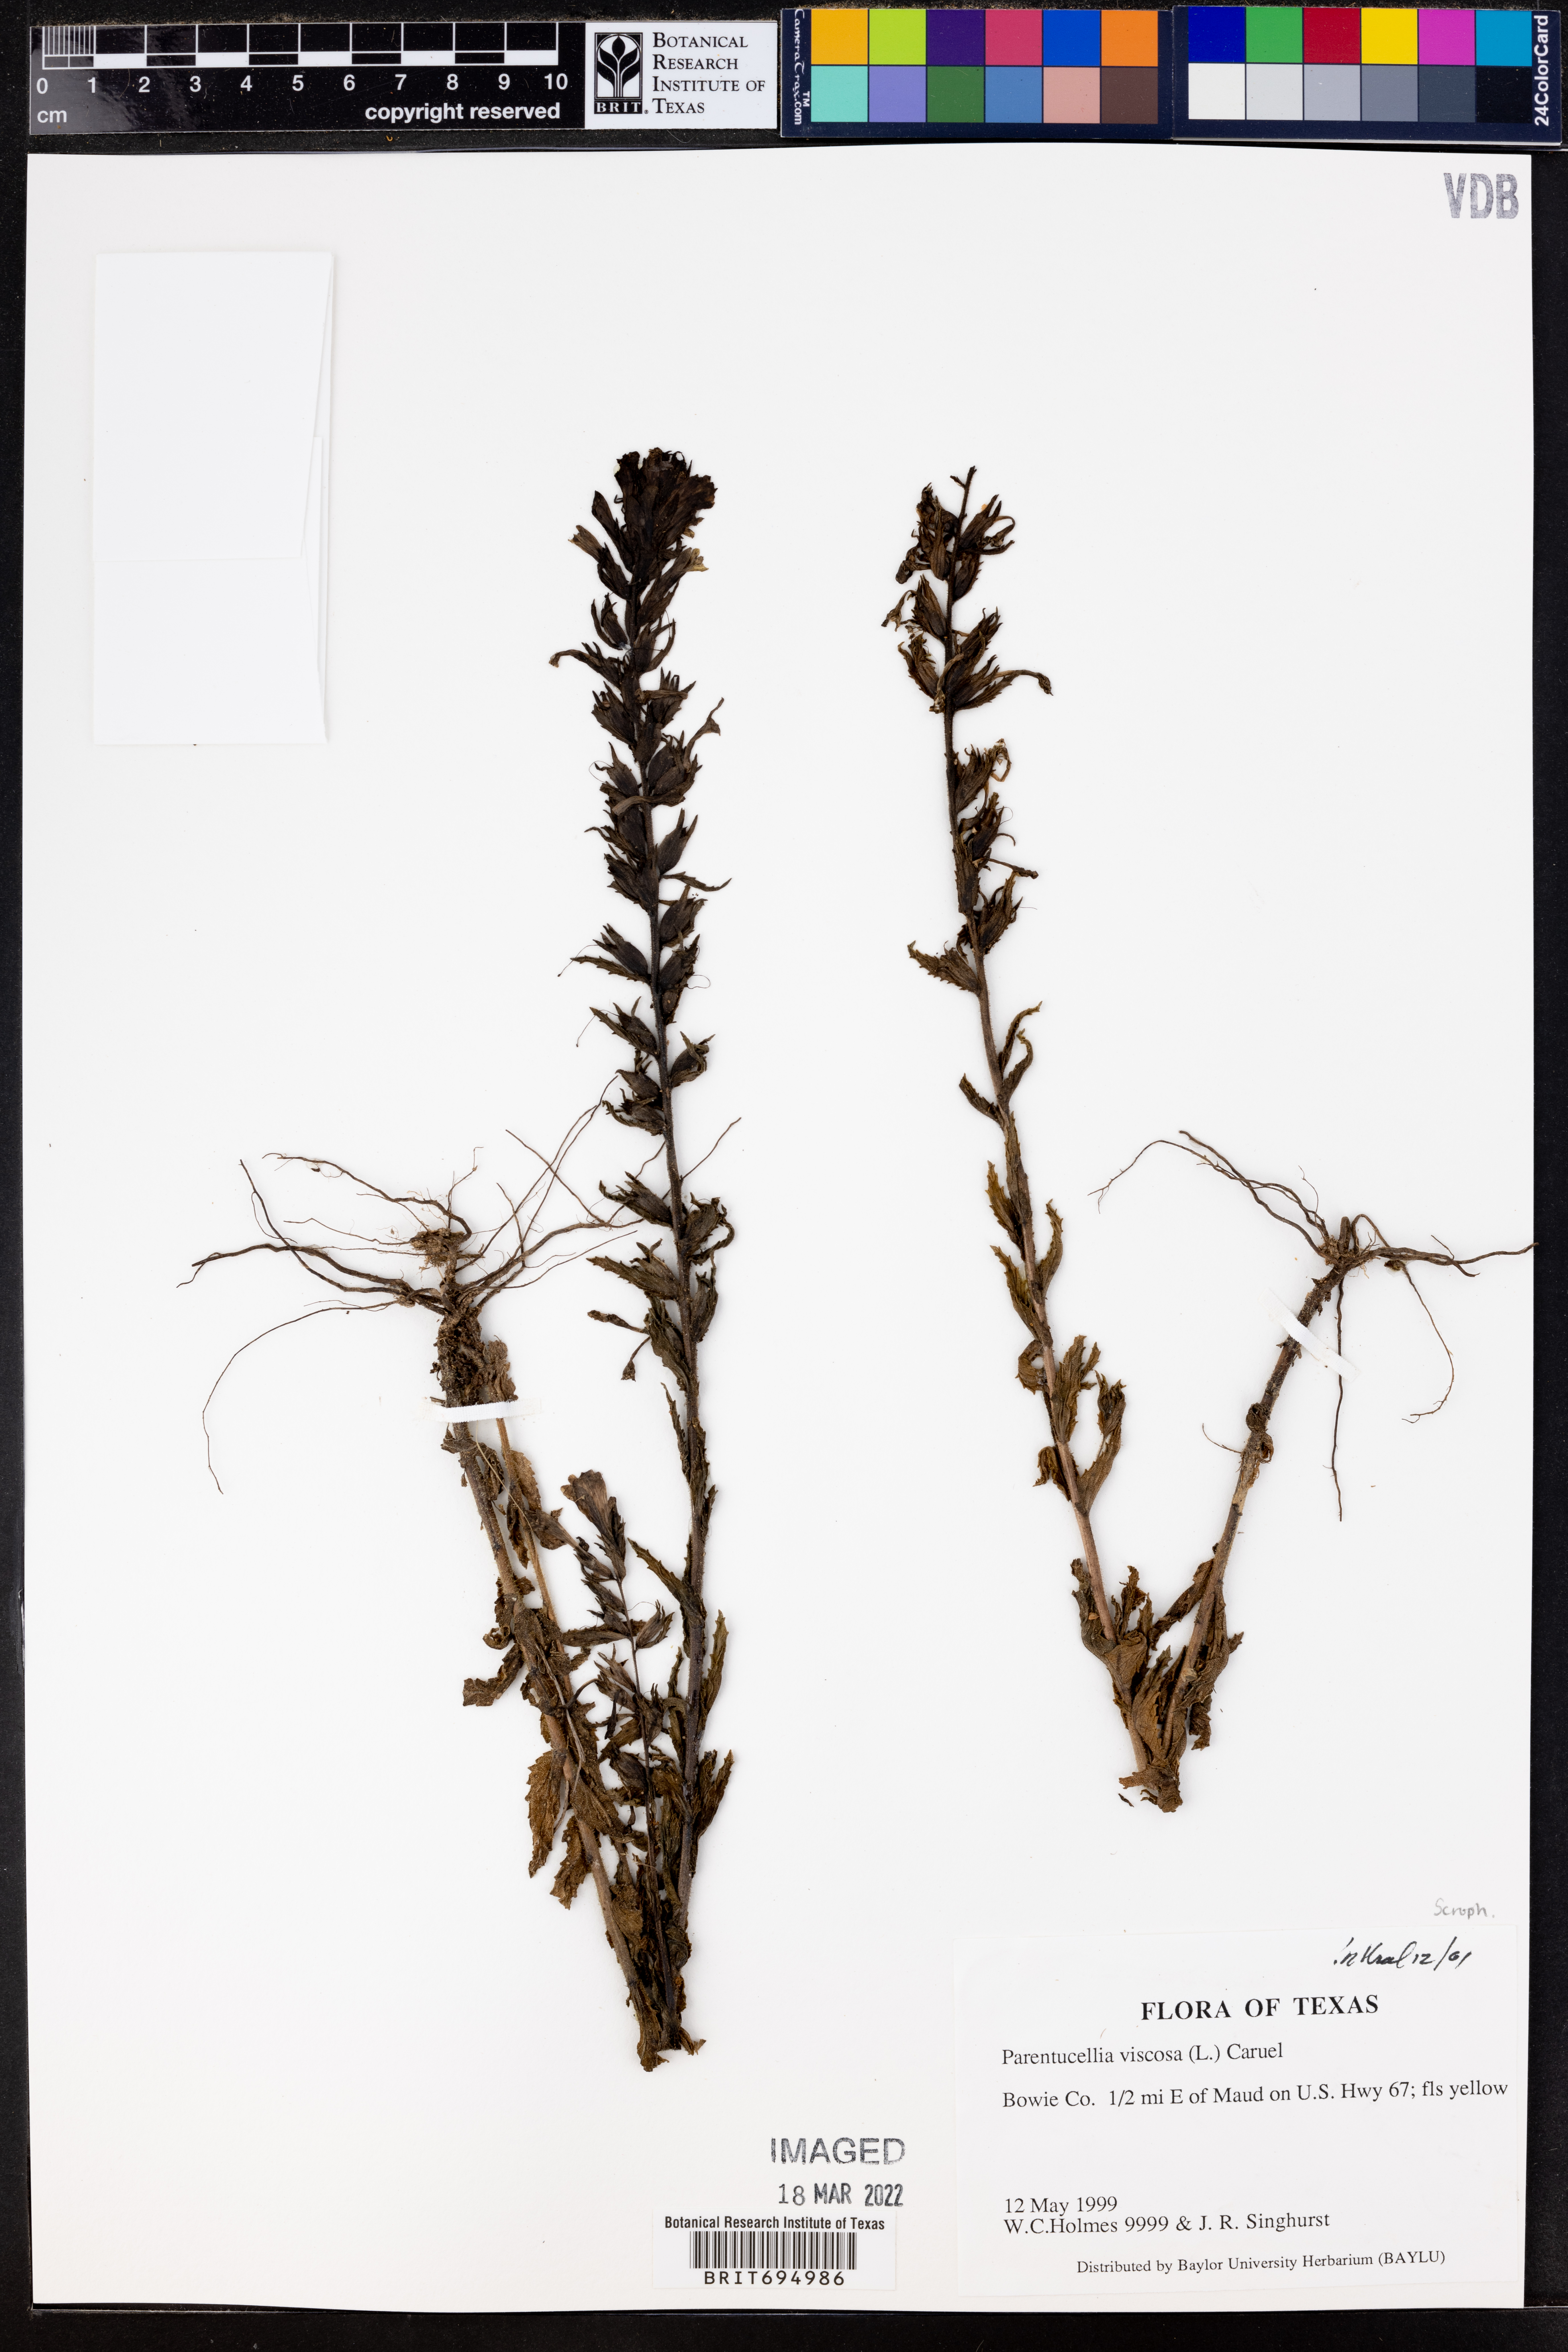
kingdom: Plantae
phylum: Tracheophyta
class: Magnoliopsida
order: Lamiales
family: Orobanchaceae
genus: Bellardia
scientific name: Bellardia viscosa
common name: Sticky parentucellia
